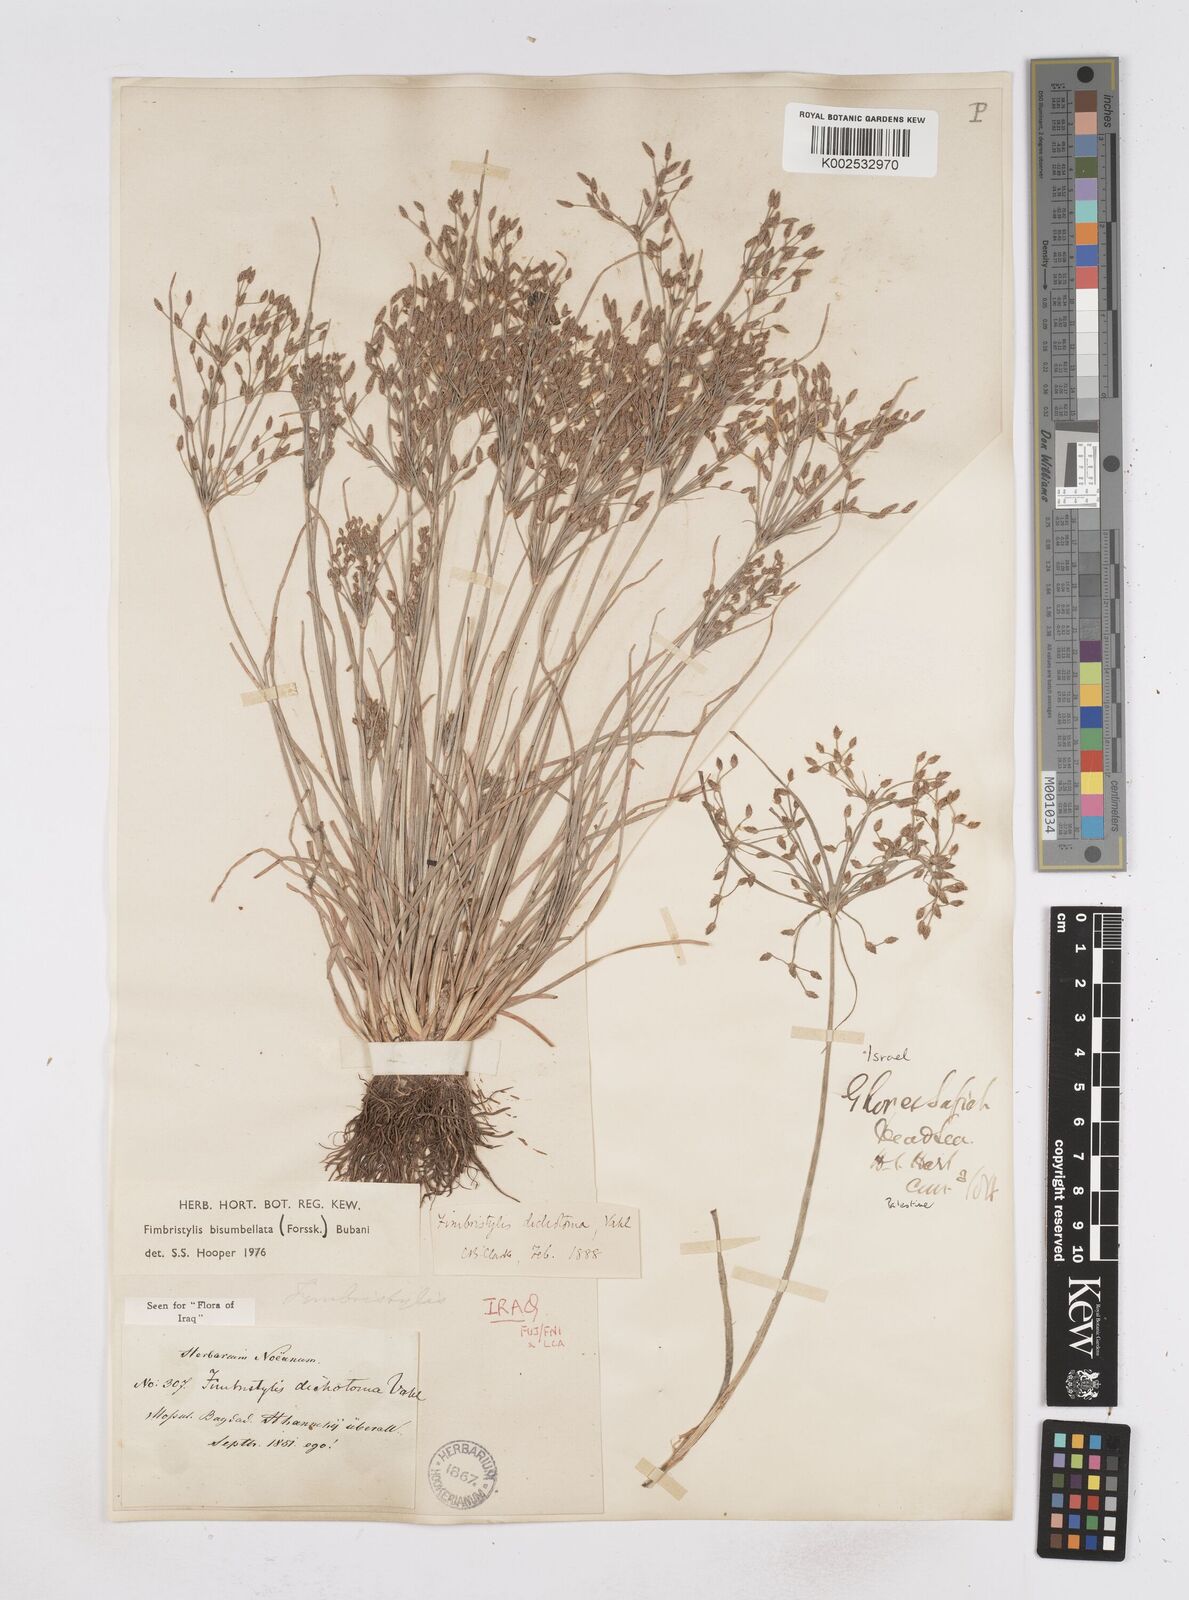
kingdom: Plantae
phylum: Tracheophyta
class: Liliopsida
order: Poales
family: Cyperaceae
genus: Fimbristylis
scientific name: Fimbristylis bisumbellata
